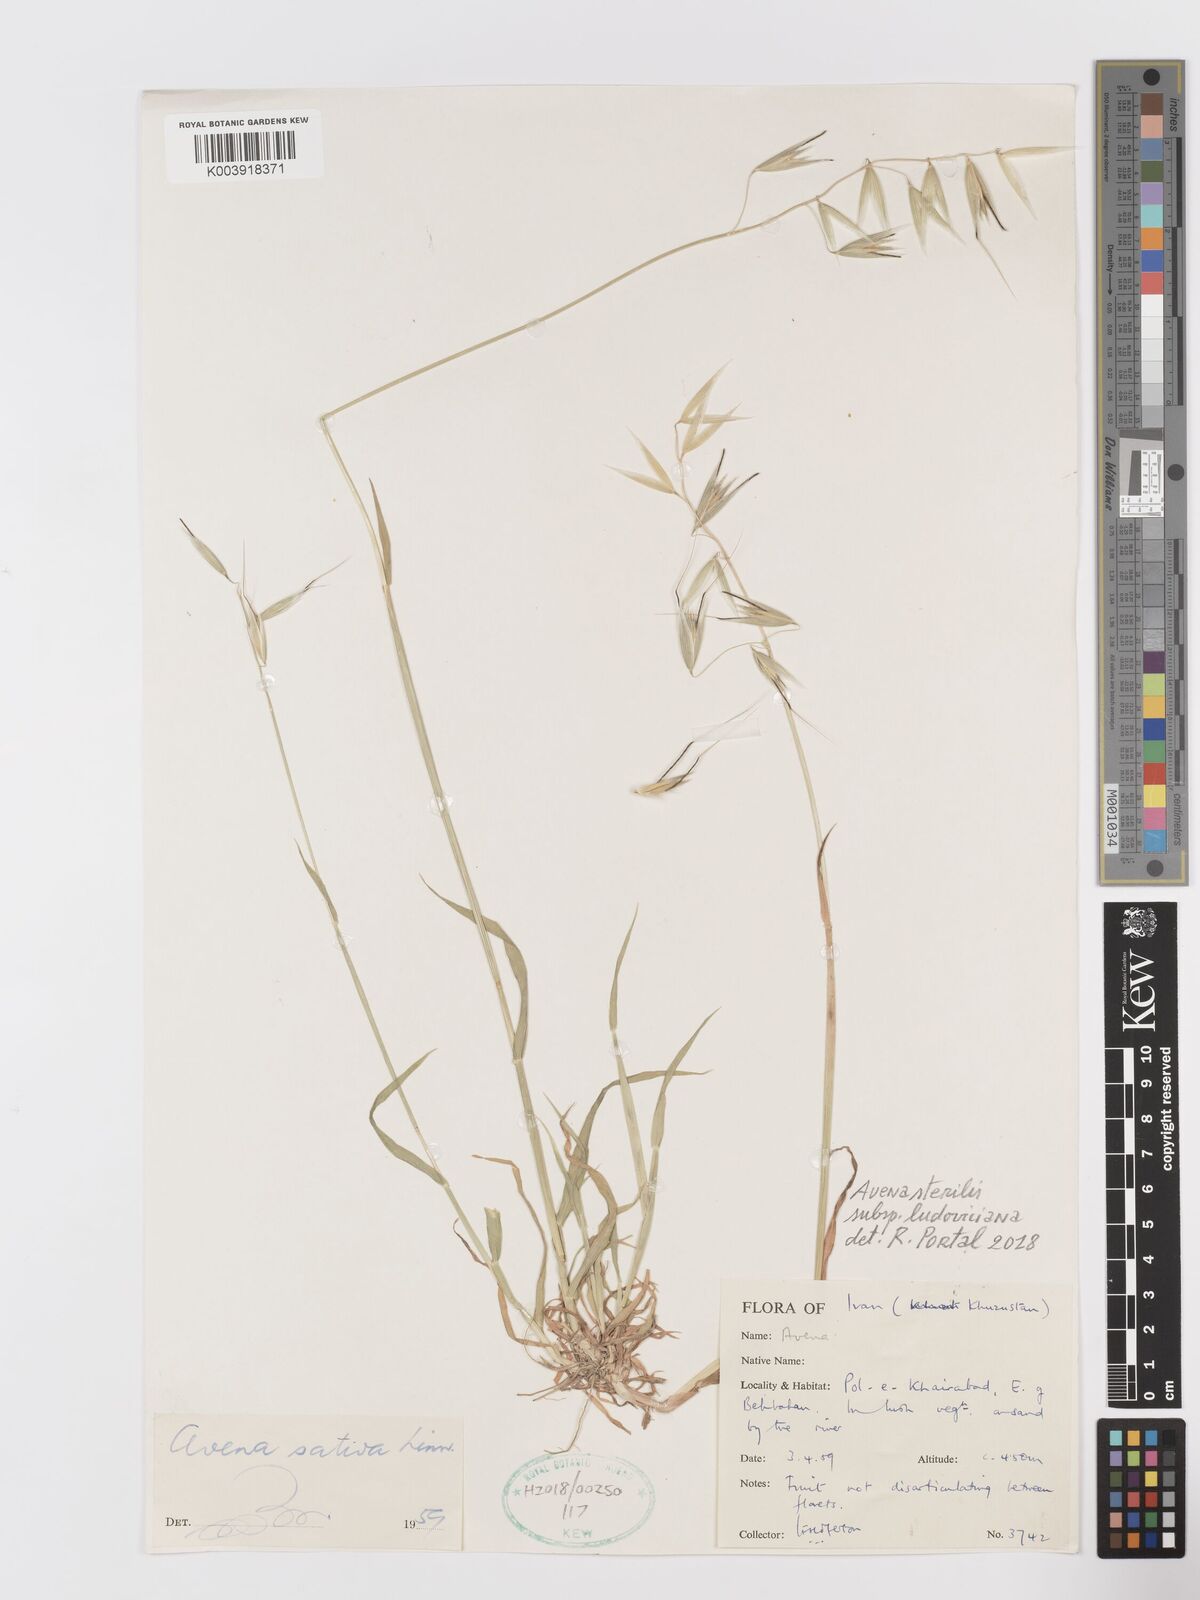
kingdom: Plantae
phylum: Tracheophyta
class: Liliopsida
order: Poales
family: Poaceae
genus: Avena
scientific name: Avena sterilis
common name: Animated oat
